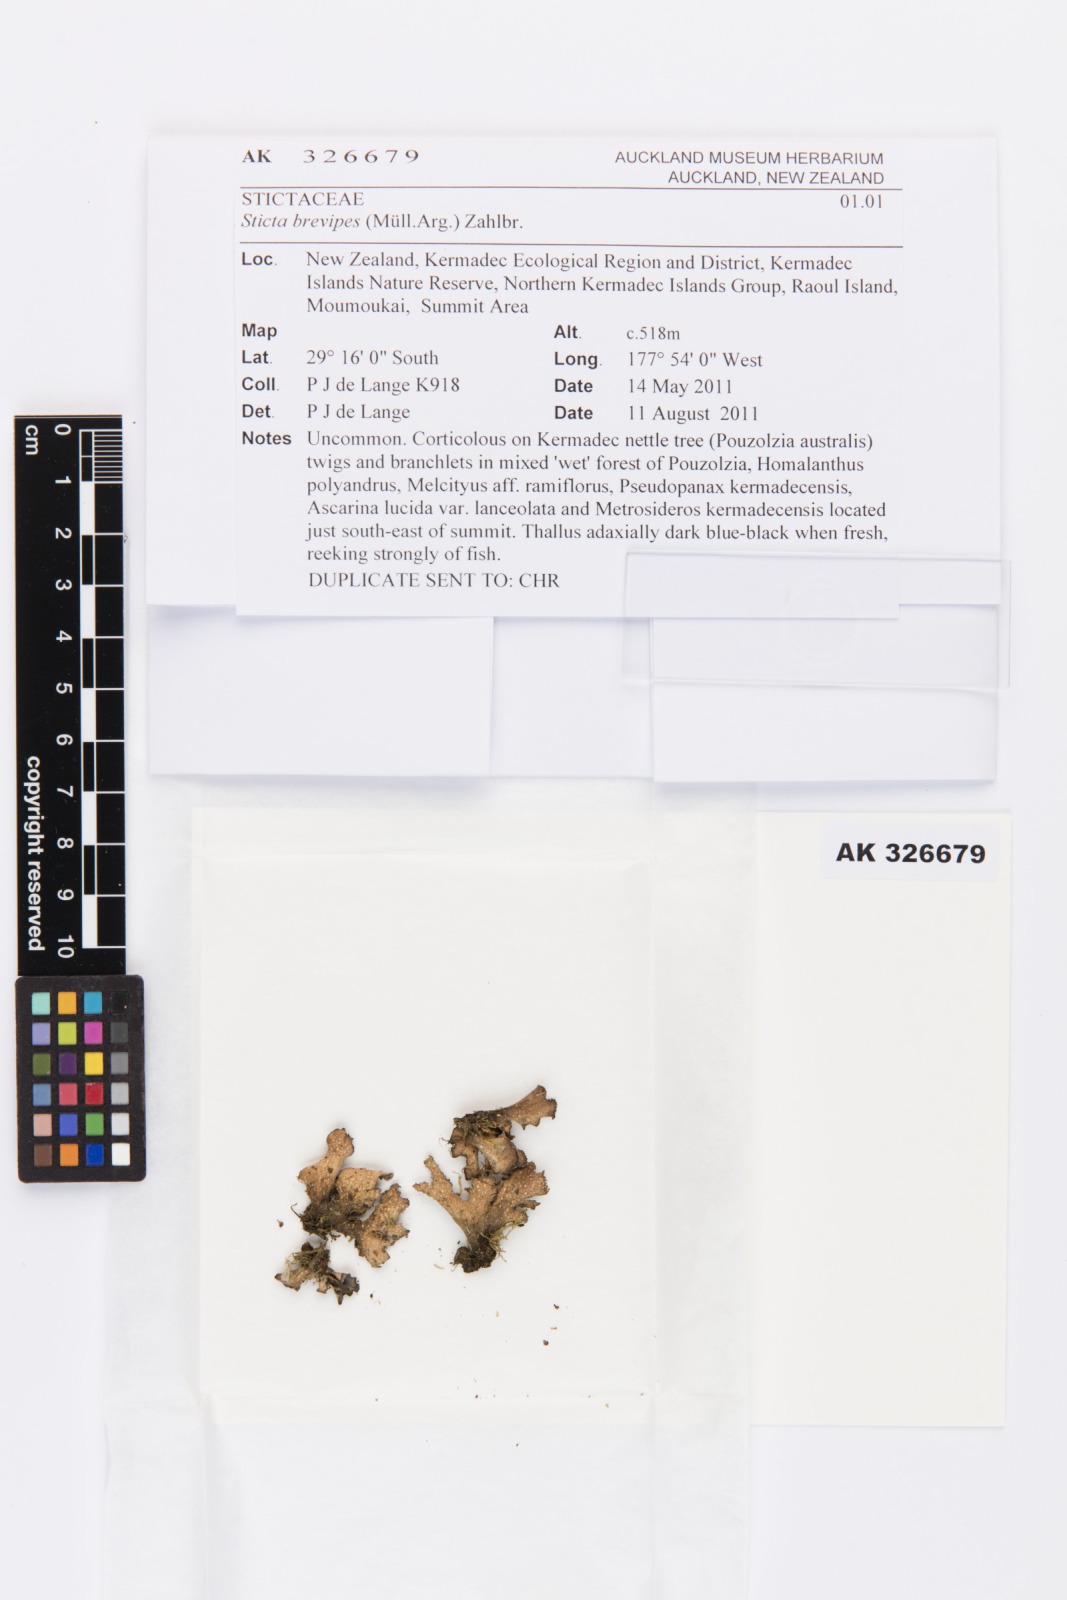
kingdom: Fungi
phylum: Ascomycota
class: Lecanoromycetes
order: Peltigerales
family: Lobariaceae
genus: Sticta
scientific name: Sticta brevipes
